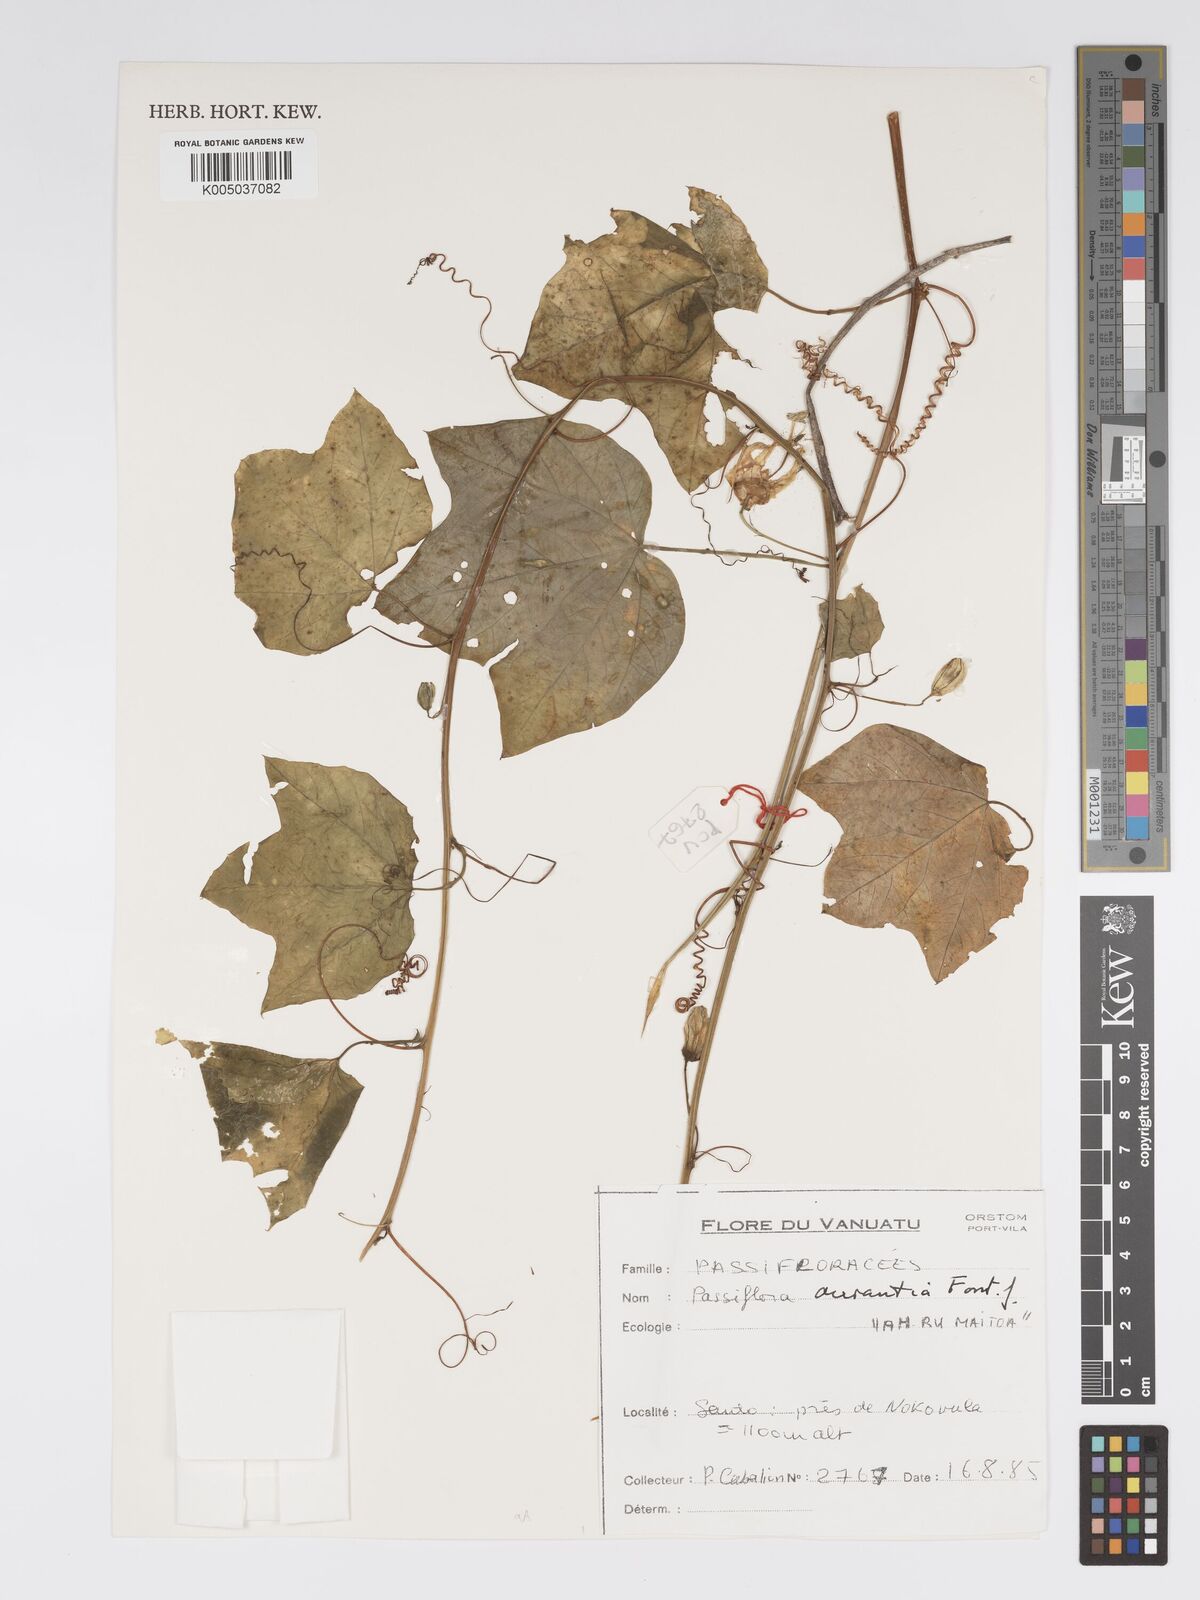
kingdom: Plantae
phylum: Tracheophyta
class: Magnoliopsida
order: Malpighiales
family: Passifloraceae
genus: Passiflora
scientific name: Passiflora aurantia
